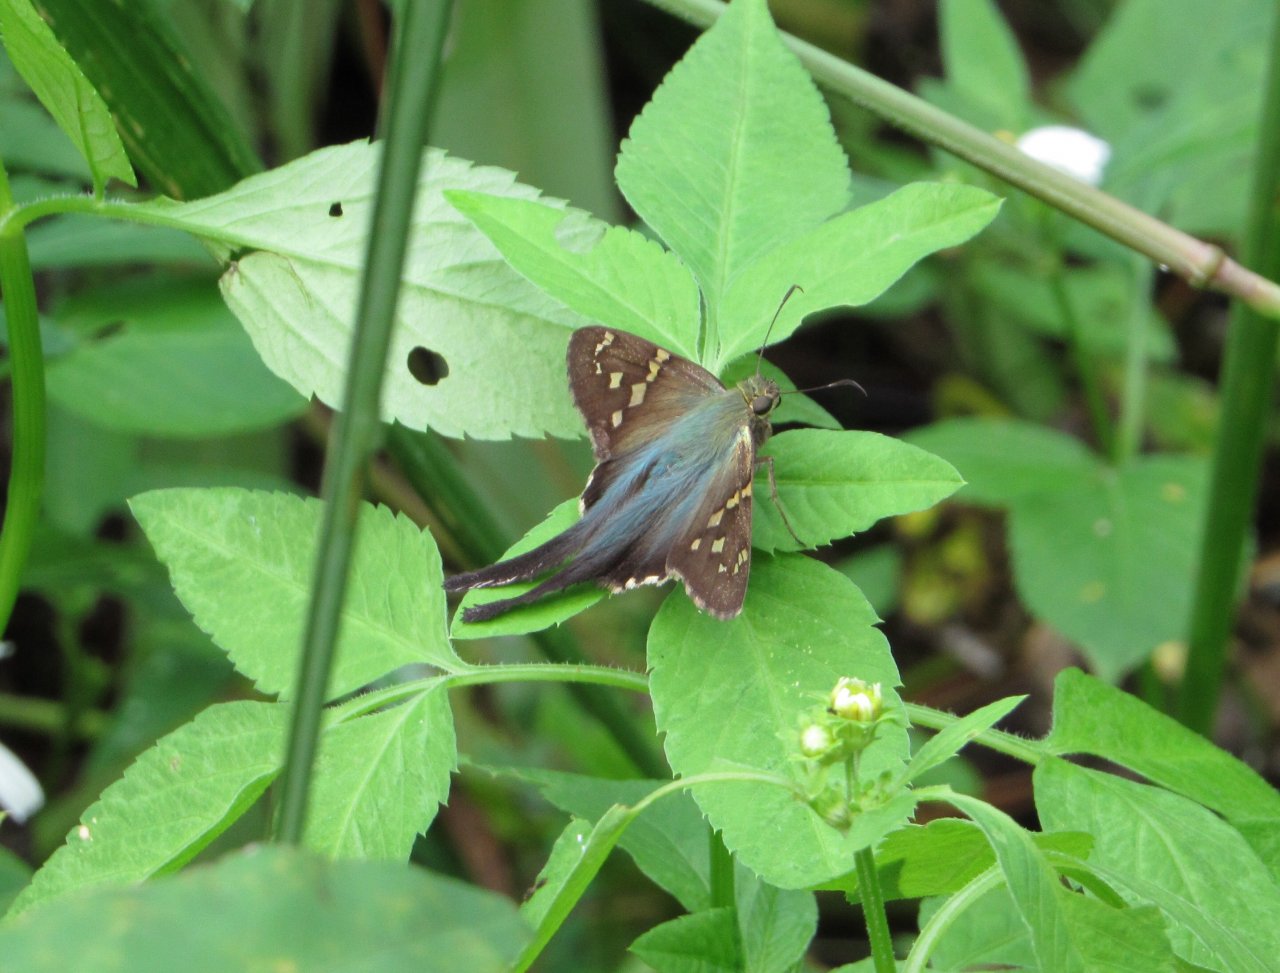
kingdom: Animalia
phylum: Arthropoda
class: Insecta
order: Lepidoptera
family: Hesperiidae
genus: Urbanus
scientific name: Urbanus proteus
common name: Long-tailed Skipper
